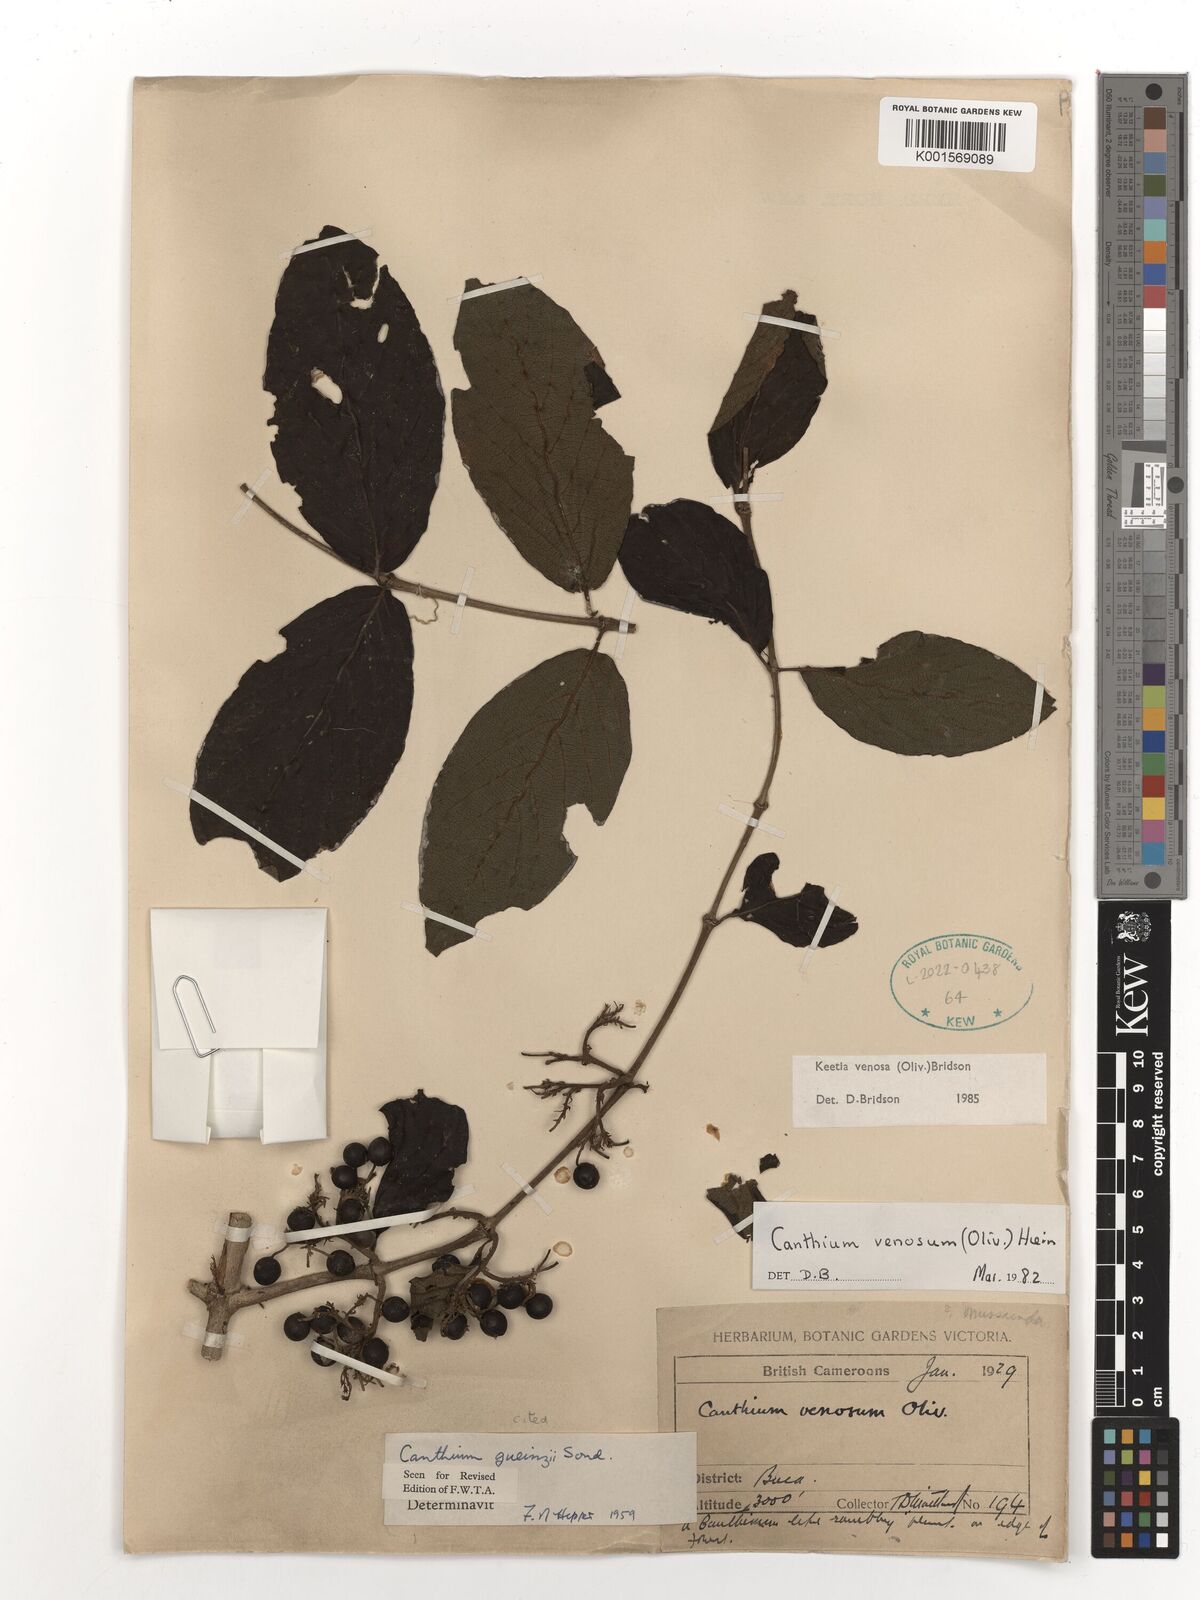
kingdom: Plantae
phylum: Tracheophyta
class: Magnoliopsida
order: Gentianales
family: Rubiaceae
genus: Keetia
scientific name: Keetia venosa
